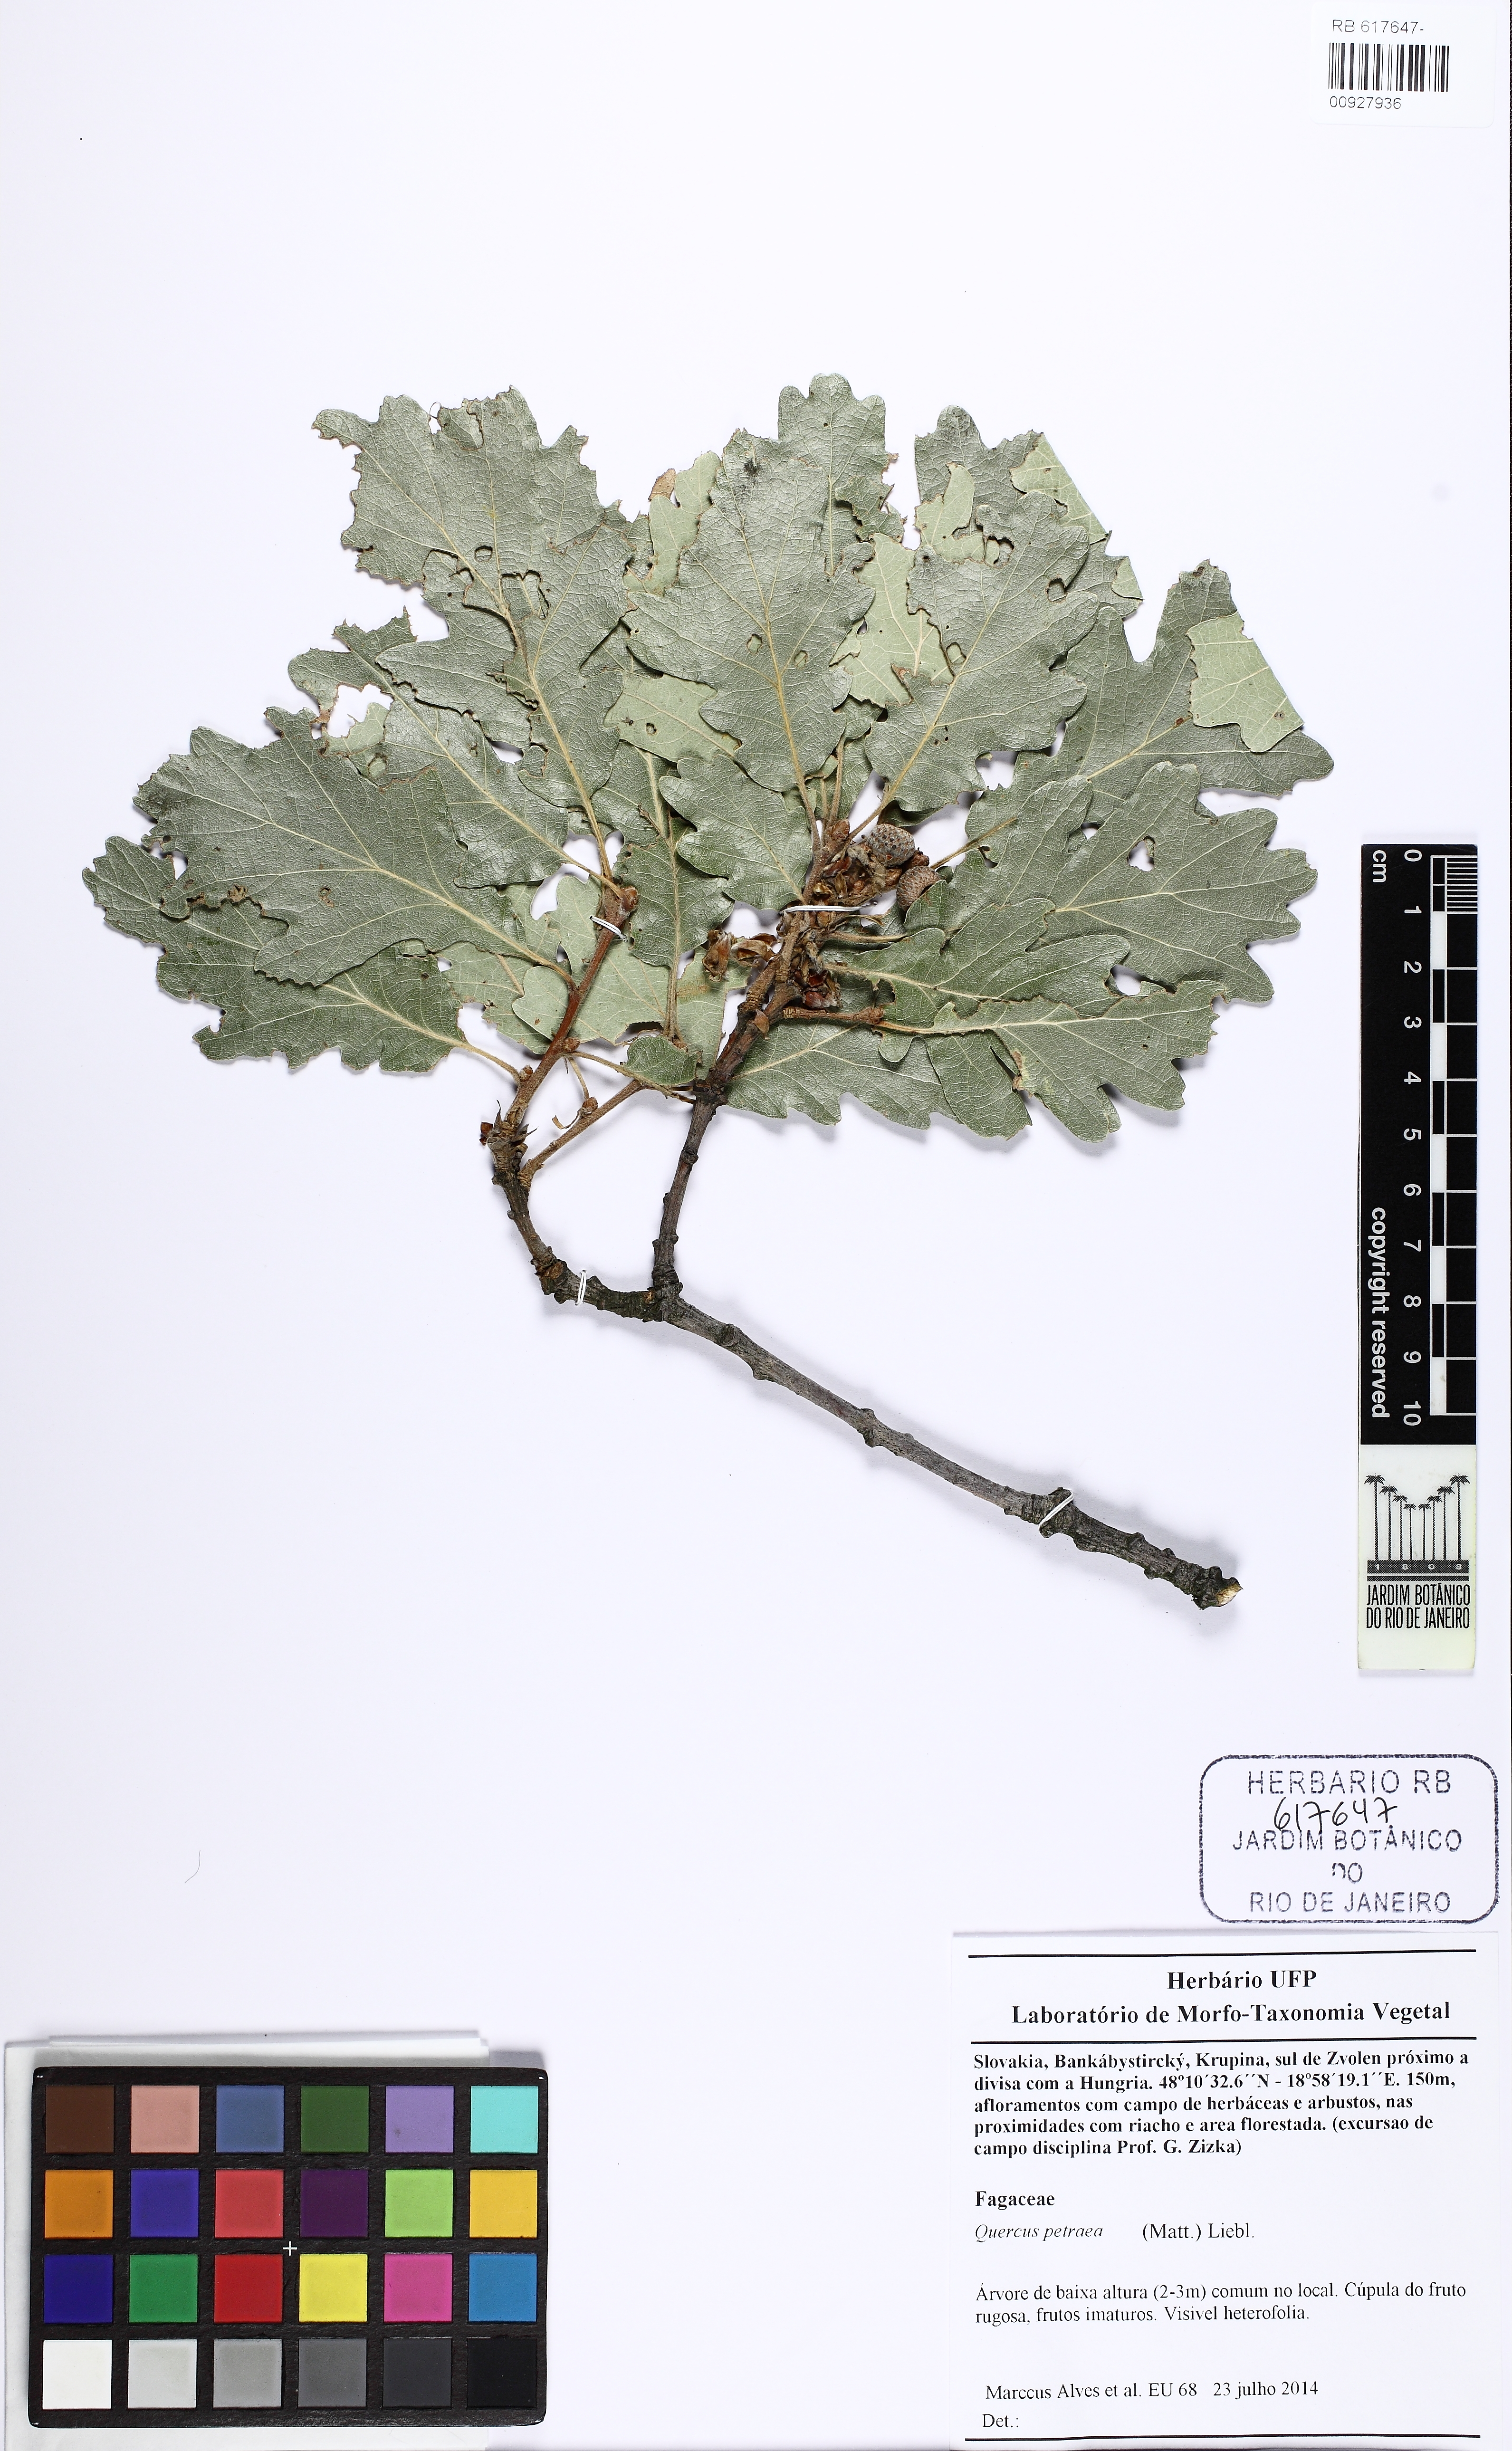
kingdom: Plantae
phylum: Tracheophyta
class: Magnoliopsida
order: Fagales
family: Fagaceae
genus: Quercus
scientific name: Quercus petraea
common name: Sessile oak
